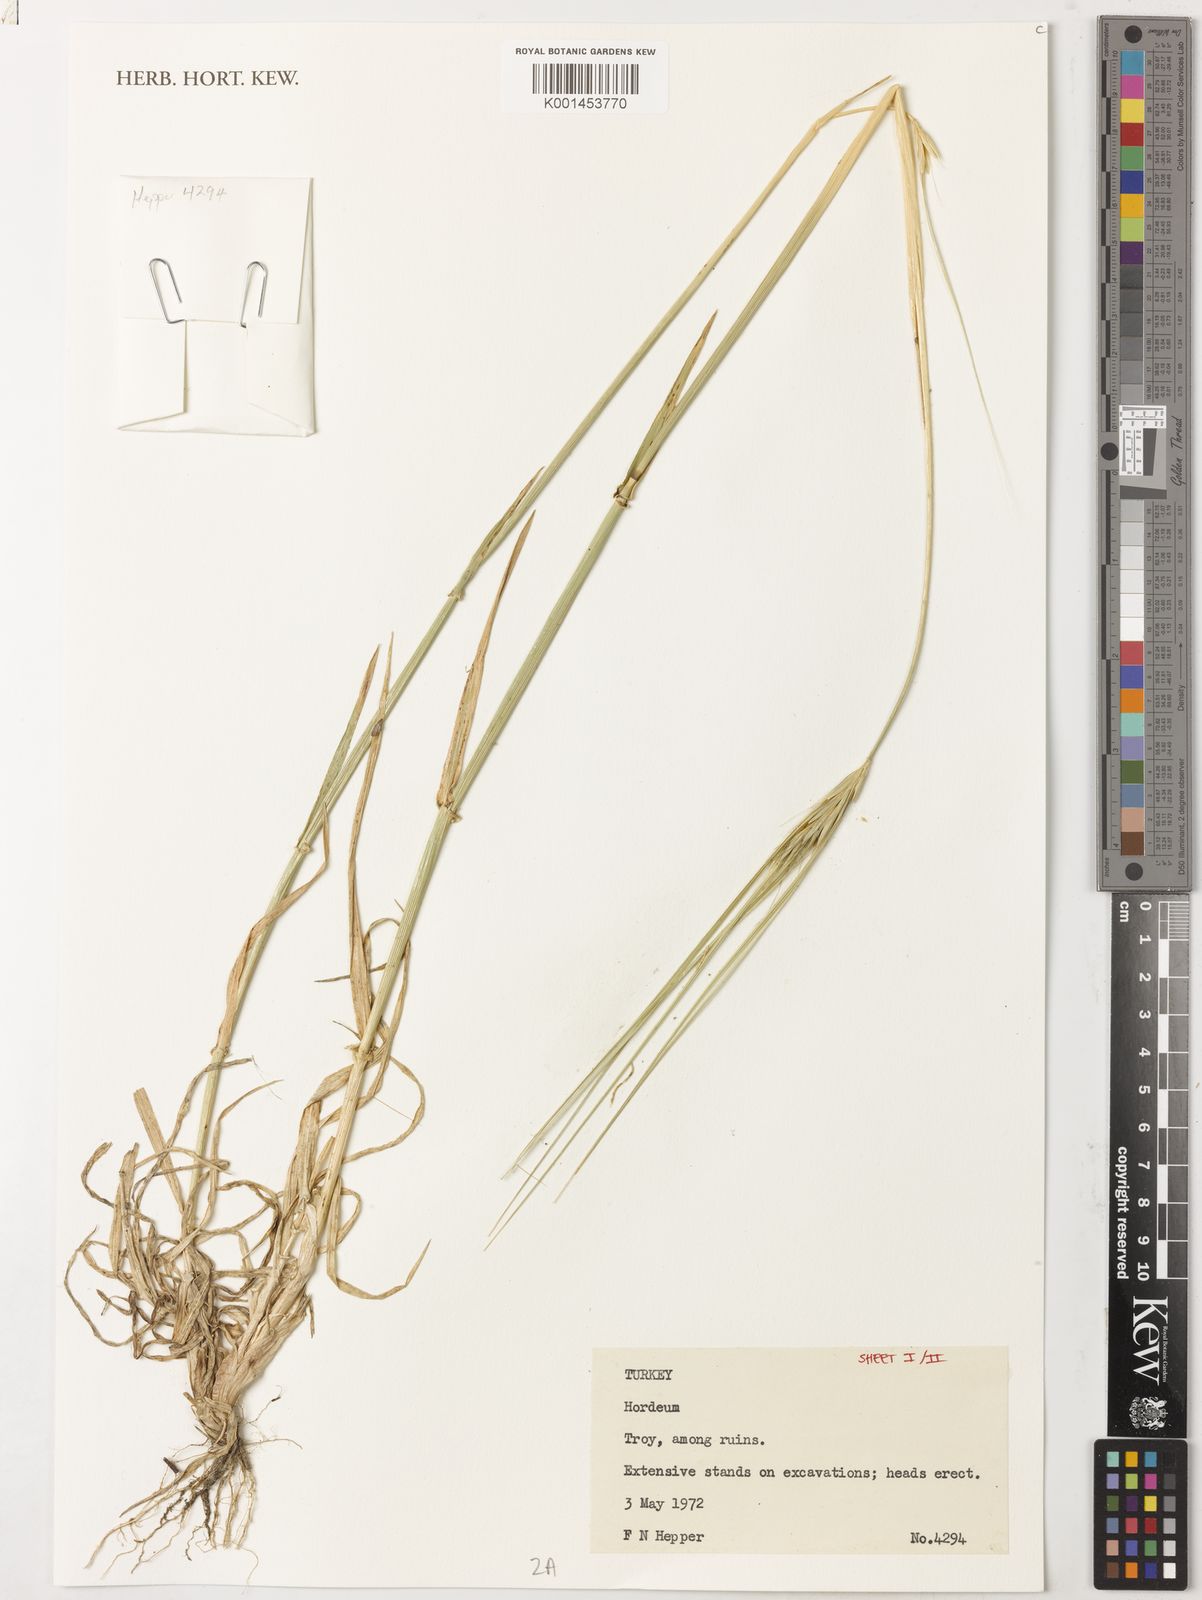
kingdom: Plantae
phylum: Tracheophyta
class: Liliopsida
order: Poales
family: Poaceae
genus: Hordeum
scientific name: Hordeum
